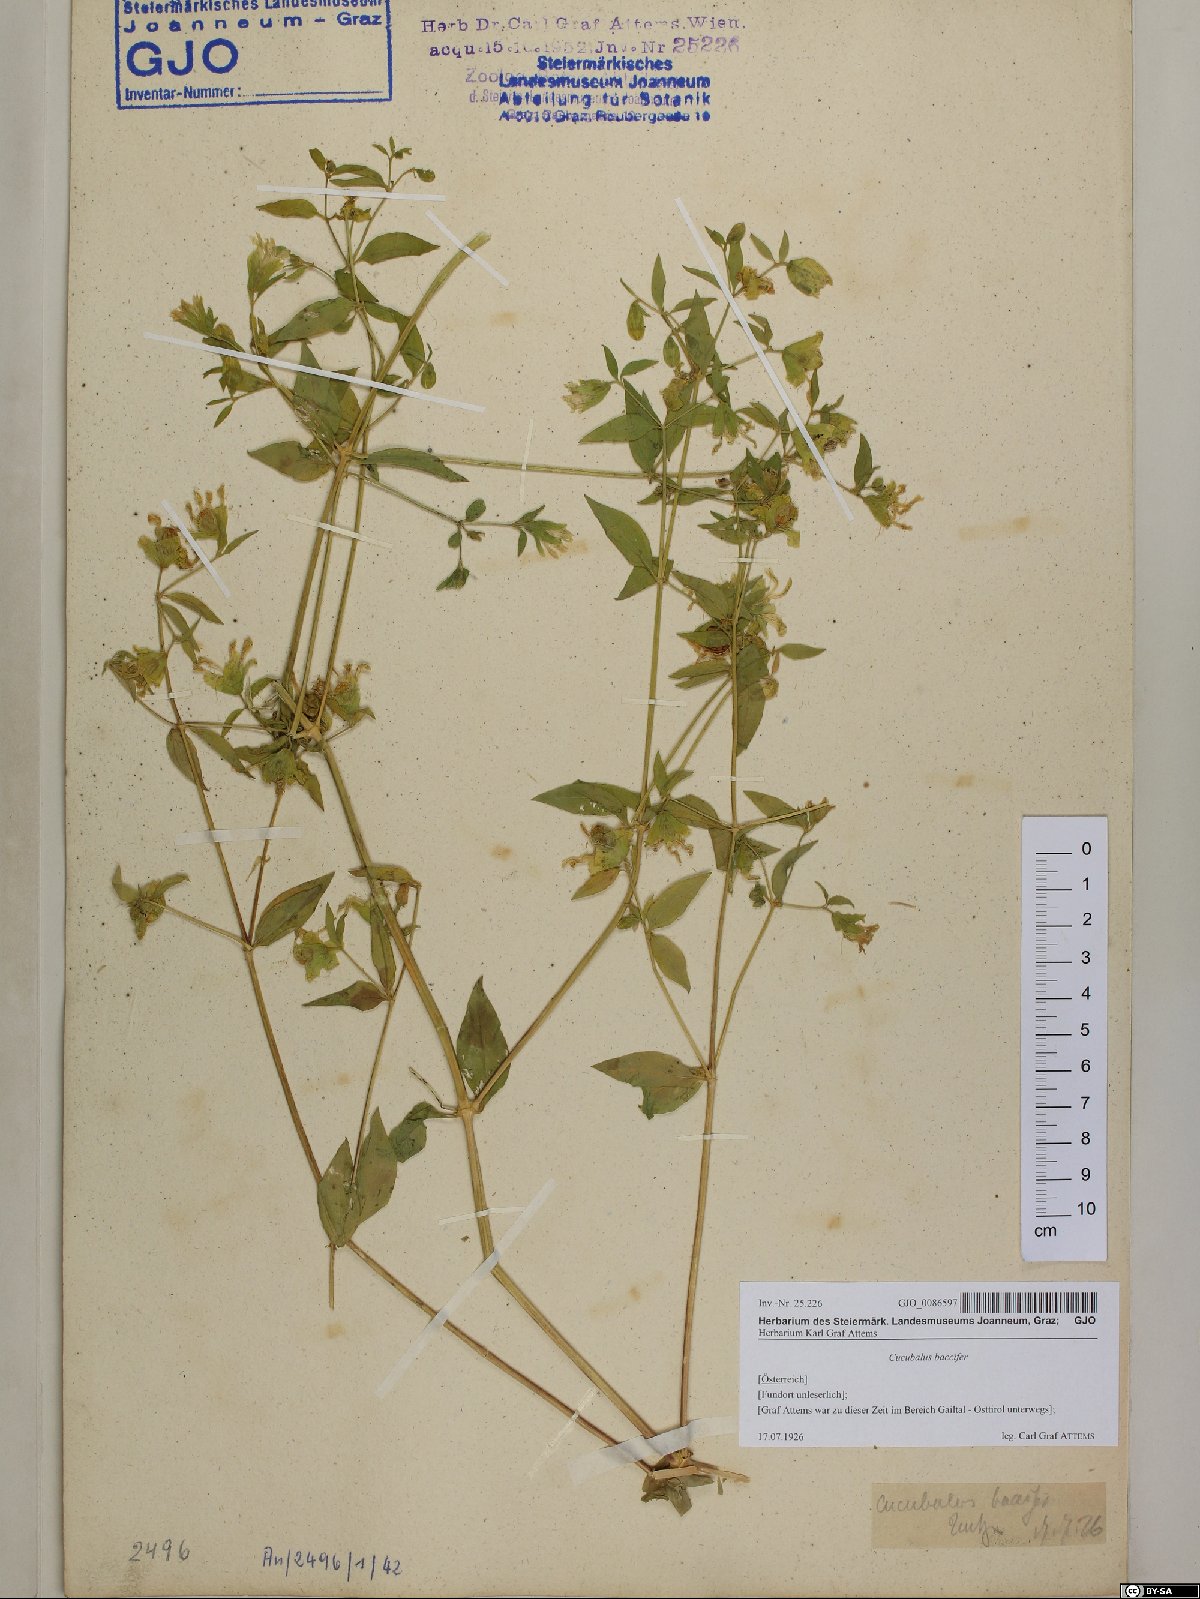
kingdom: Plantae
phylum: Tracheophyta
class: Magnoliopsida
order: Caryophyllales
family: Caryophyllaceae
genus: Silene
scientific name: Silene baccifera
